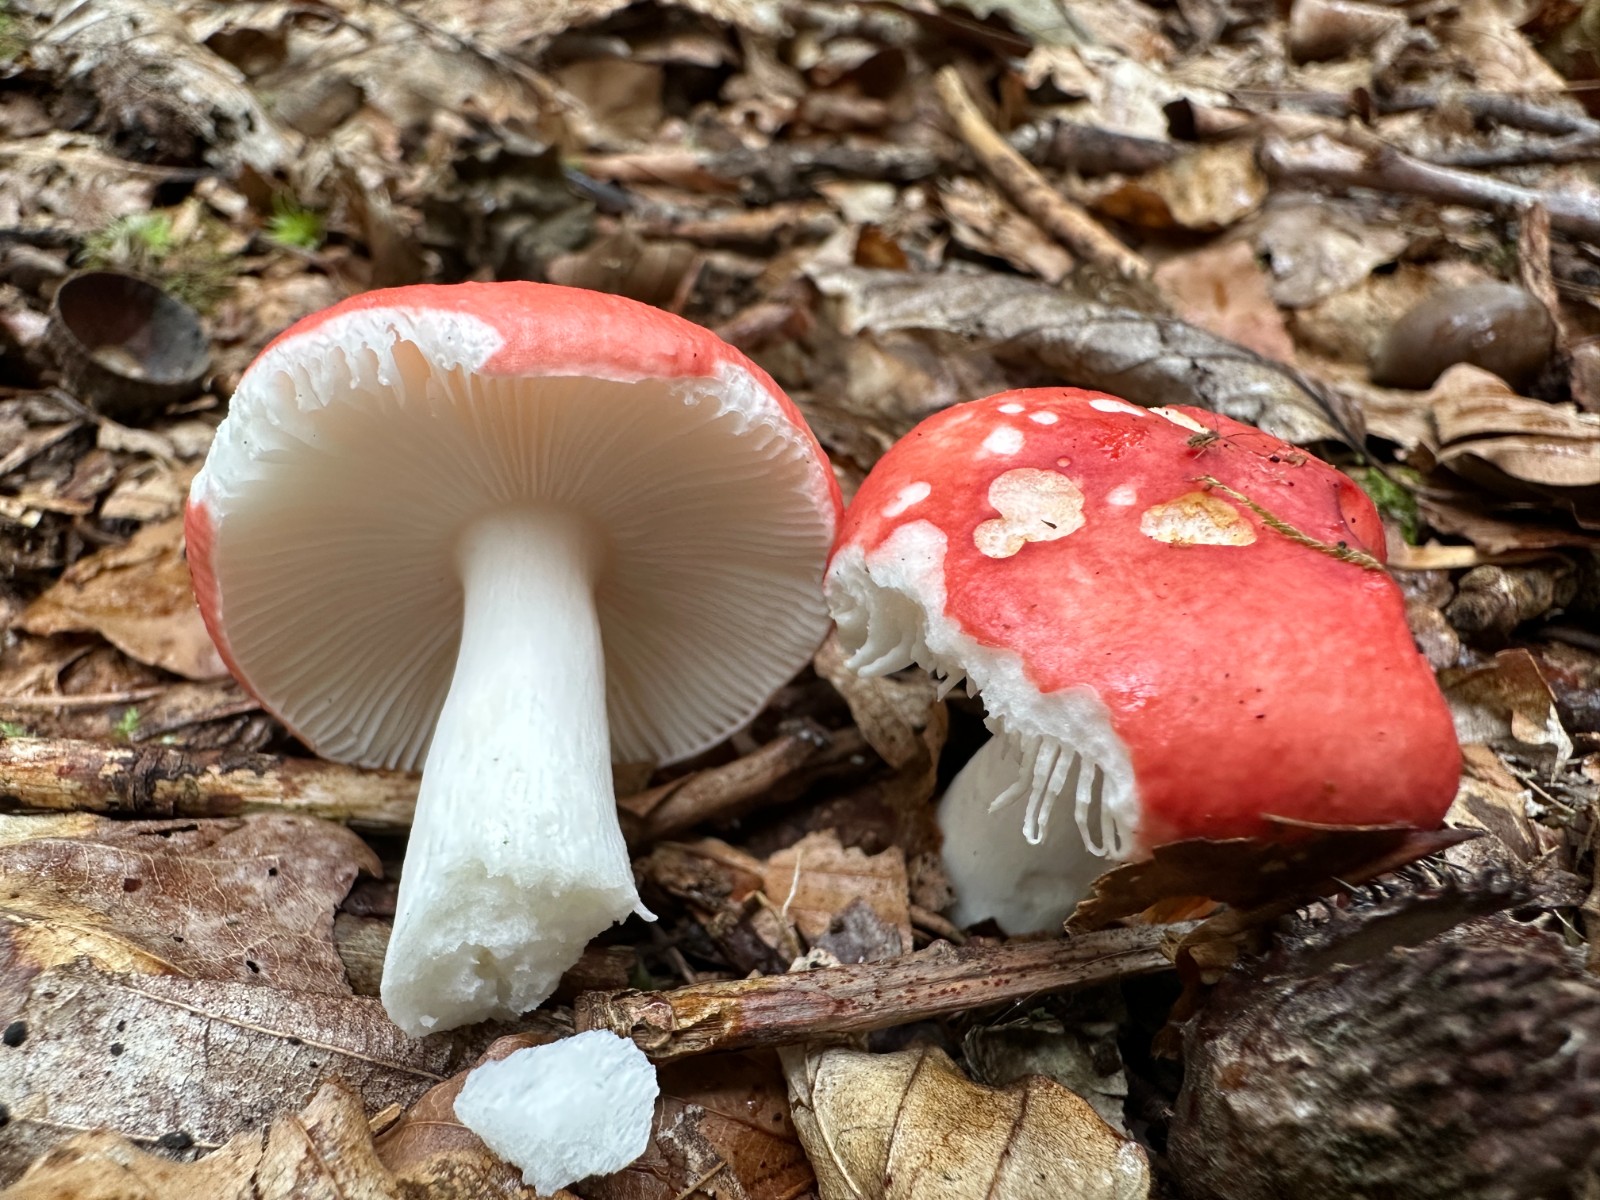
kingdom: Fungi
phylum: Basidiomycota
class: Agaricomycetes
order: Russulales
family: Russulaceae
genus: Russula
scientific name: Russula
